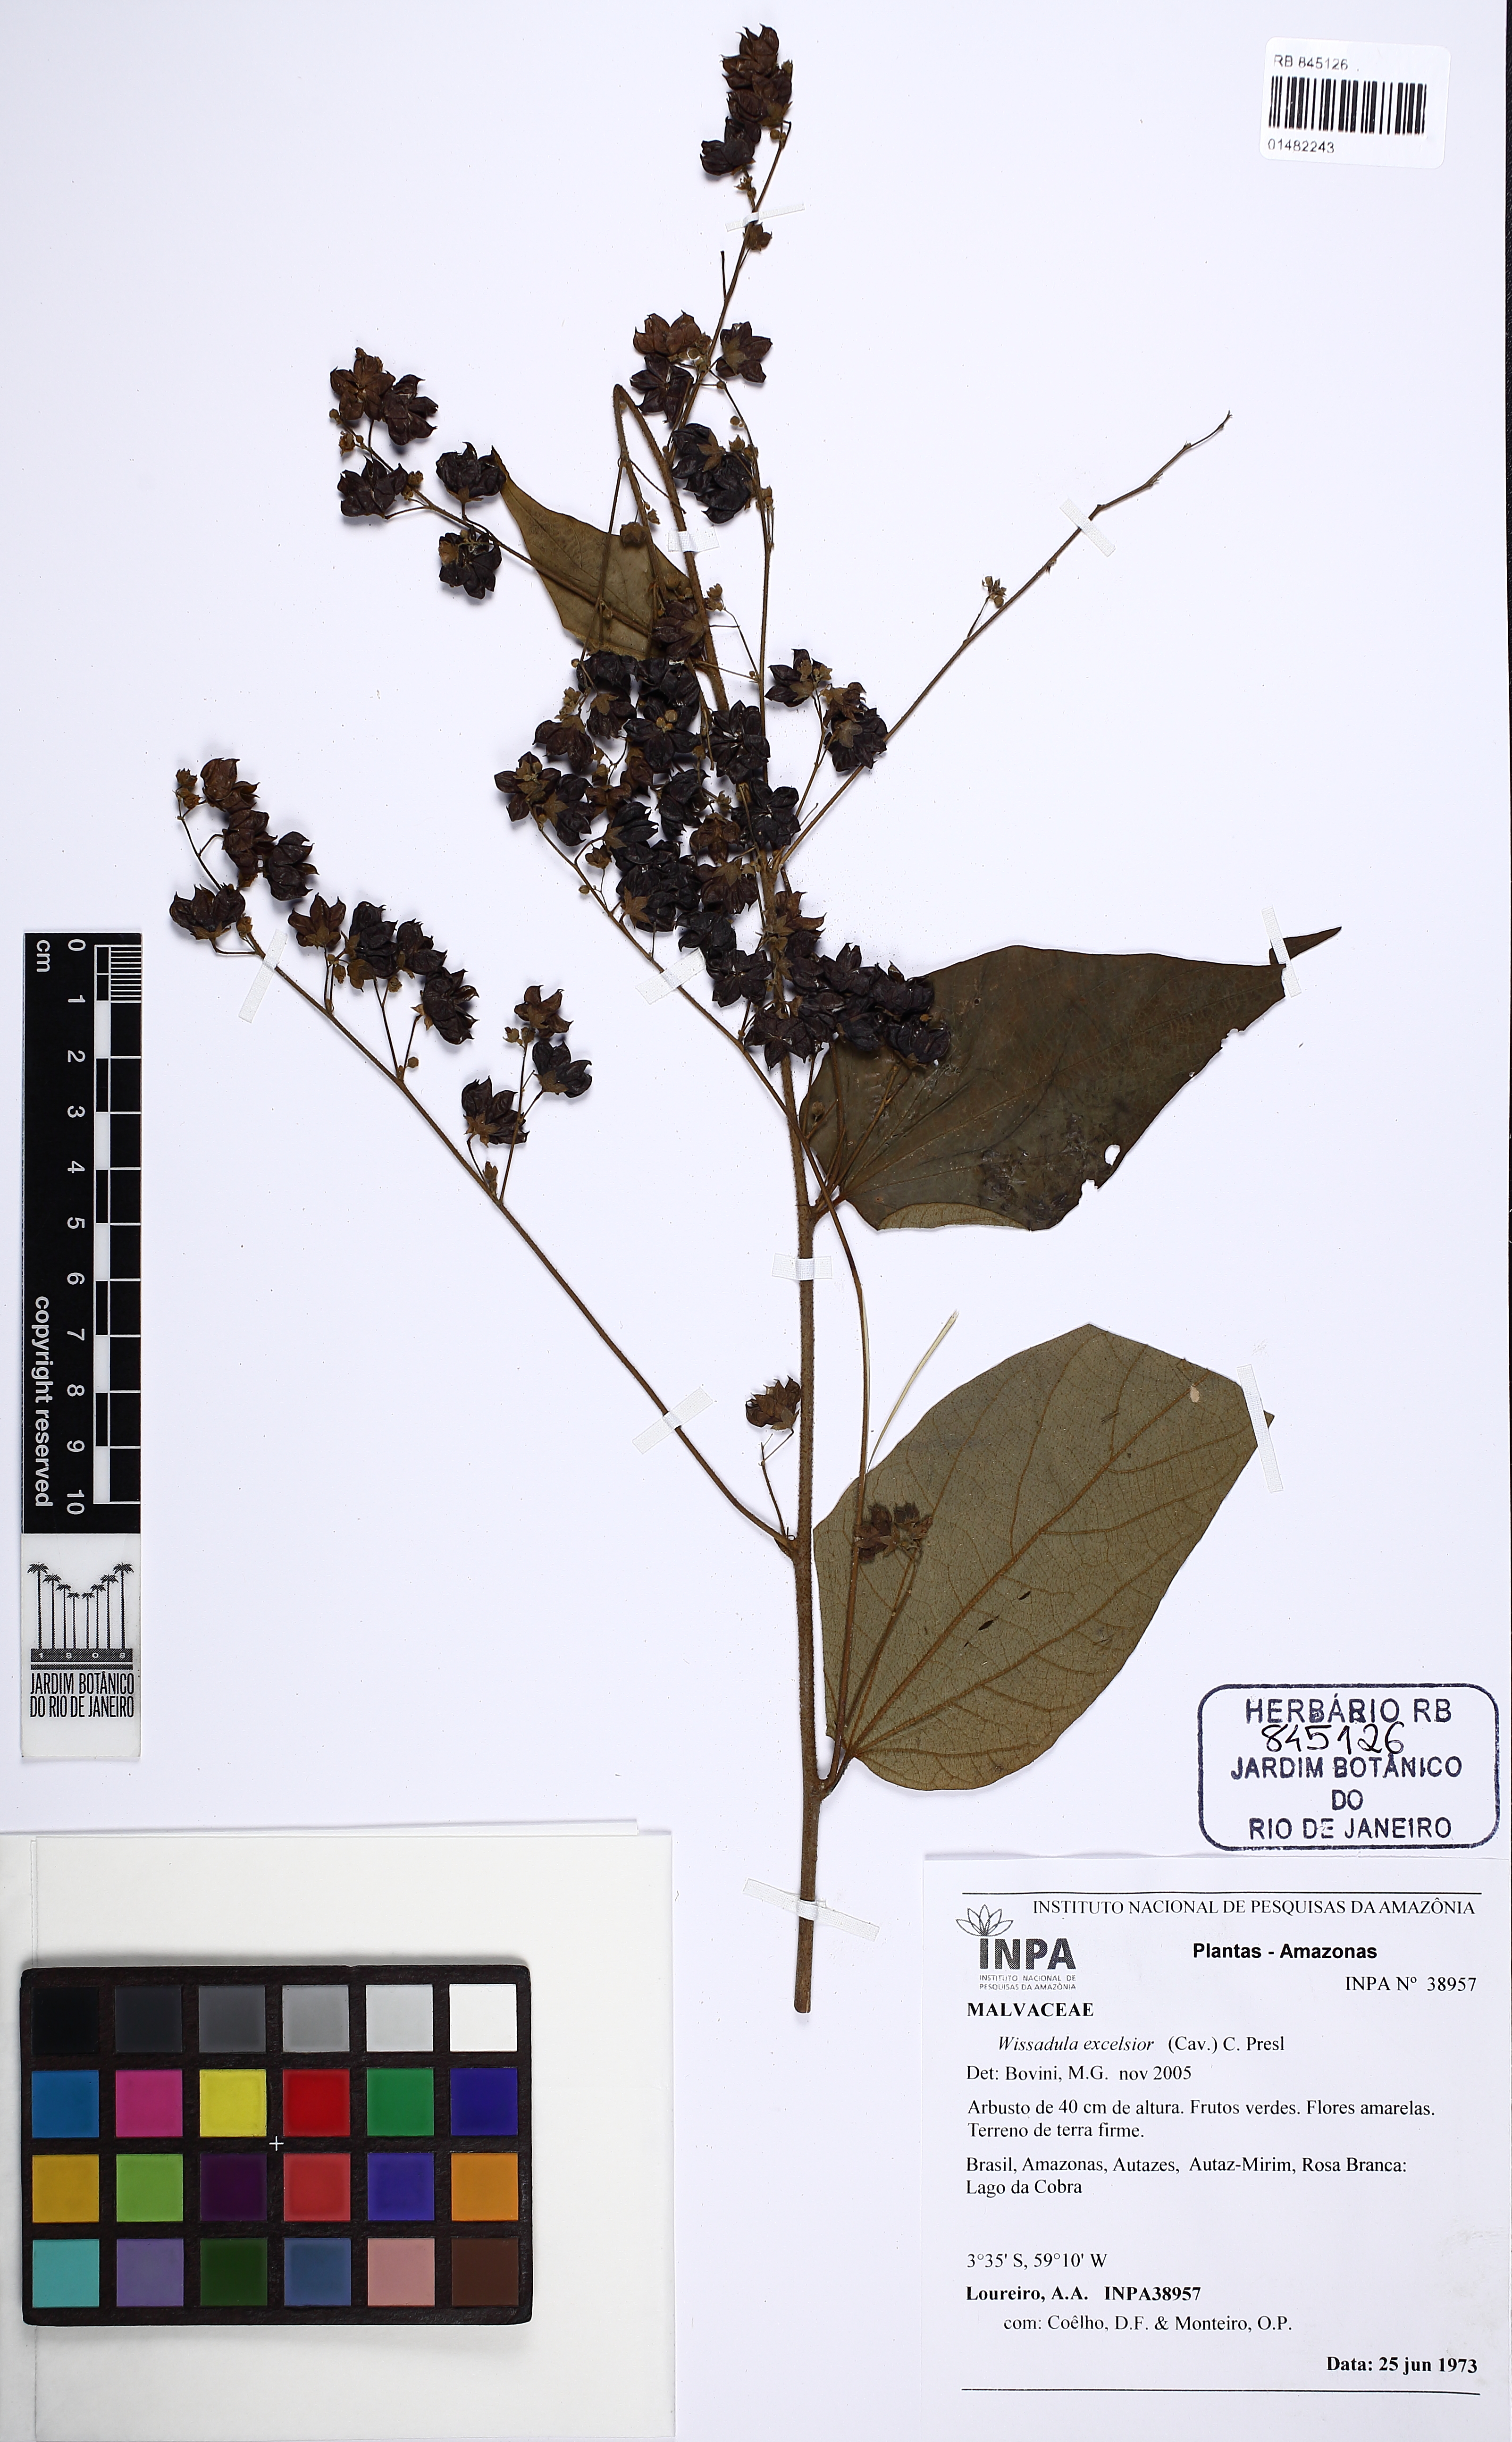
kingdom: Plantae
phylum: Tracheophyta
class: Magnoliopsida
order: Malvales
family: Malvaceae
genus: Wissadula
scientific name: Wissadula excelsior
